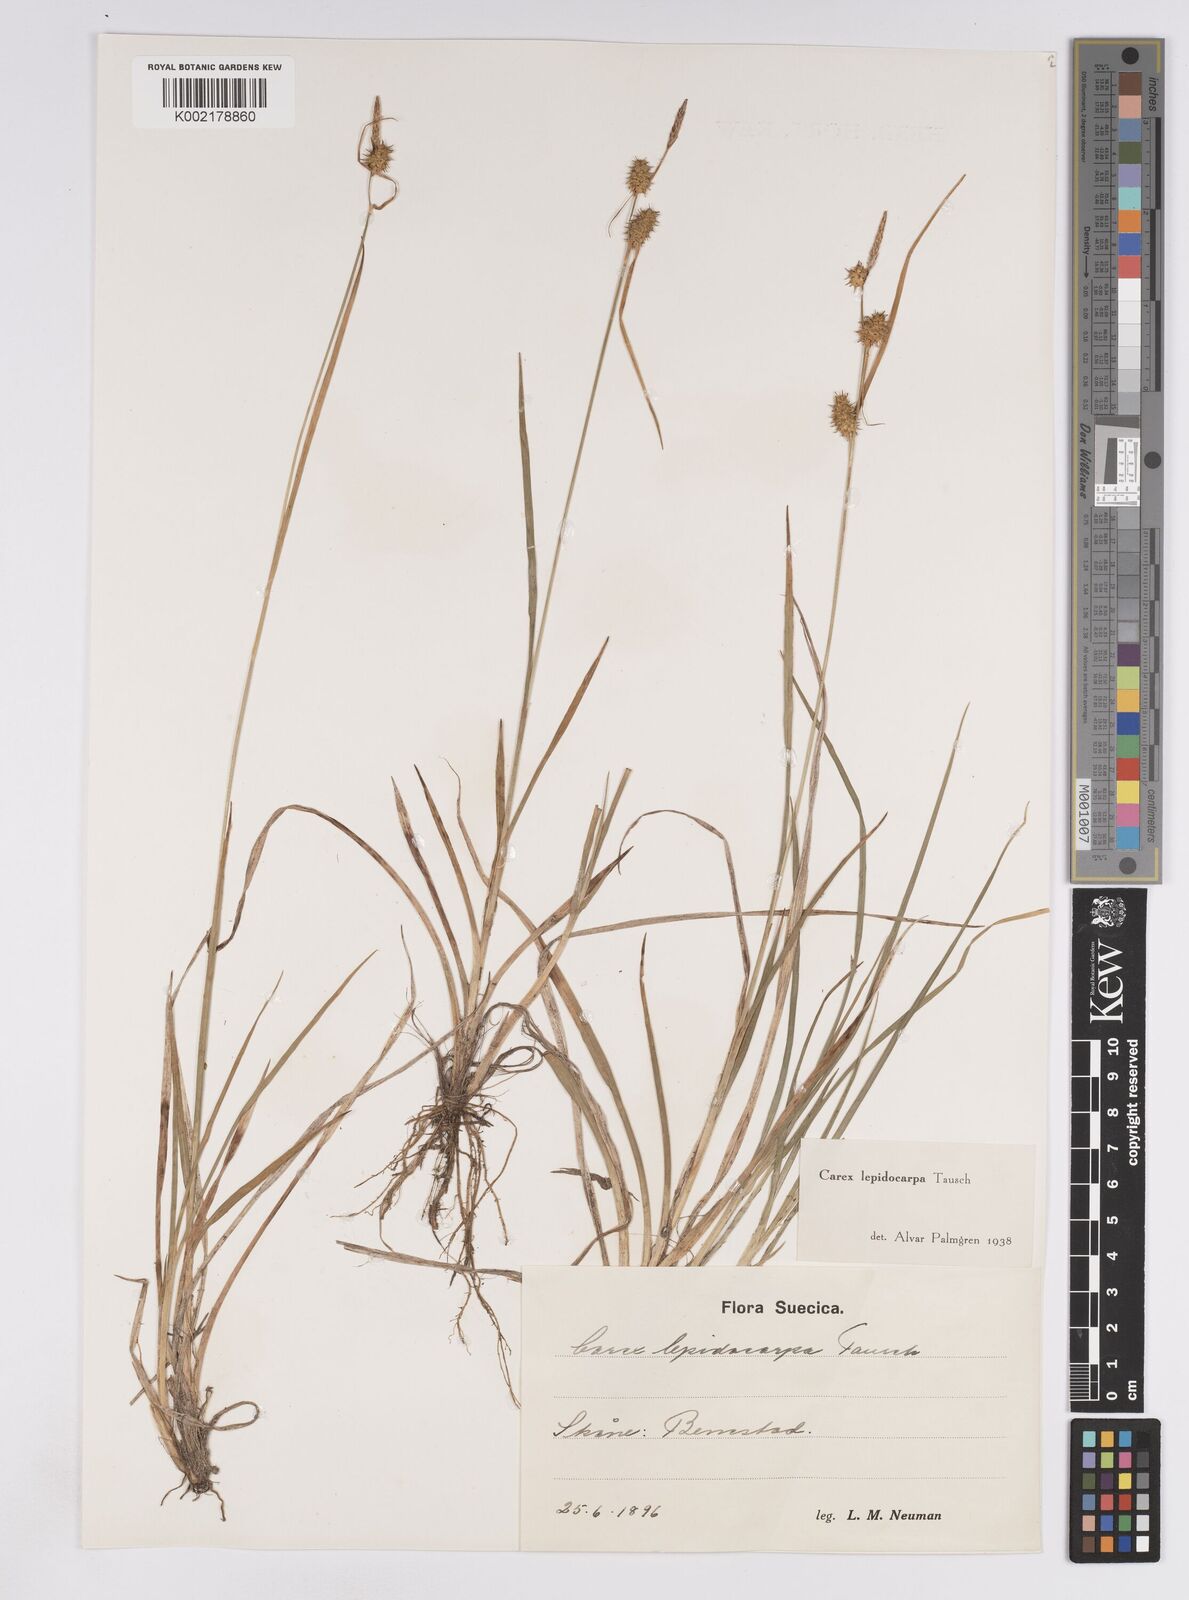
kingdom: Plantae
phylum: Tracheophyta
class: Liliopsida
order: Poales
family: Cyperaceae
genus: Carex
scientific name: Carex lepidocarpa
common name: Long-stalked yellow-sedge
